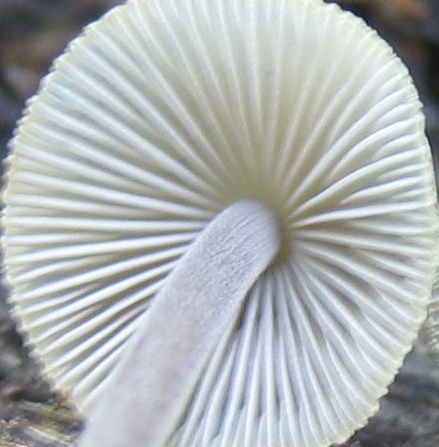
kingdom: Fungi
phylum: Basidiomycota
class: Agaricomycetes
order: Agaricales
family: Mycenaceae
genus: Mycena
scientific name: Mycena
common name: huesvamp
